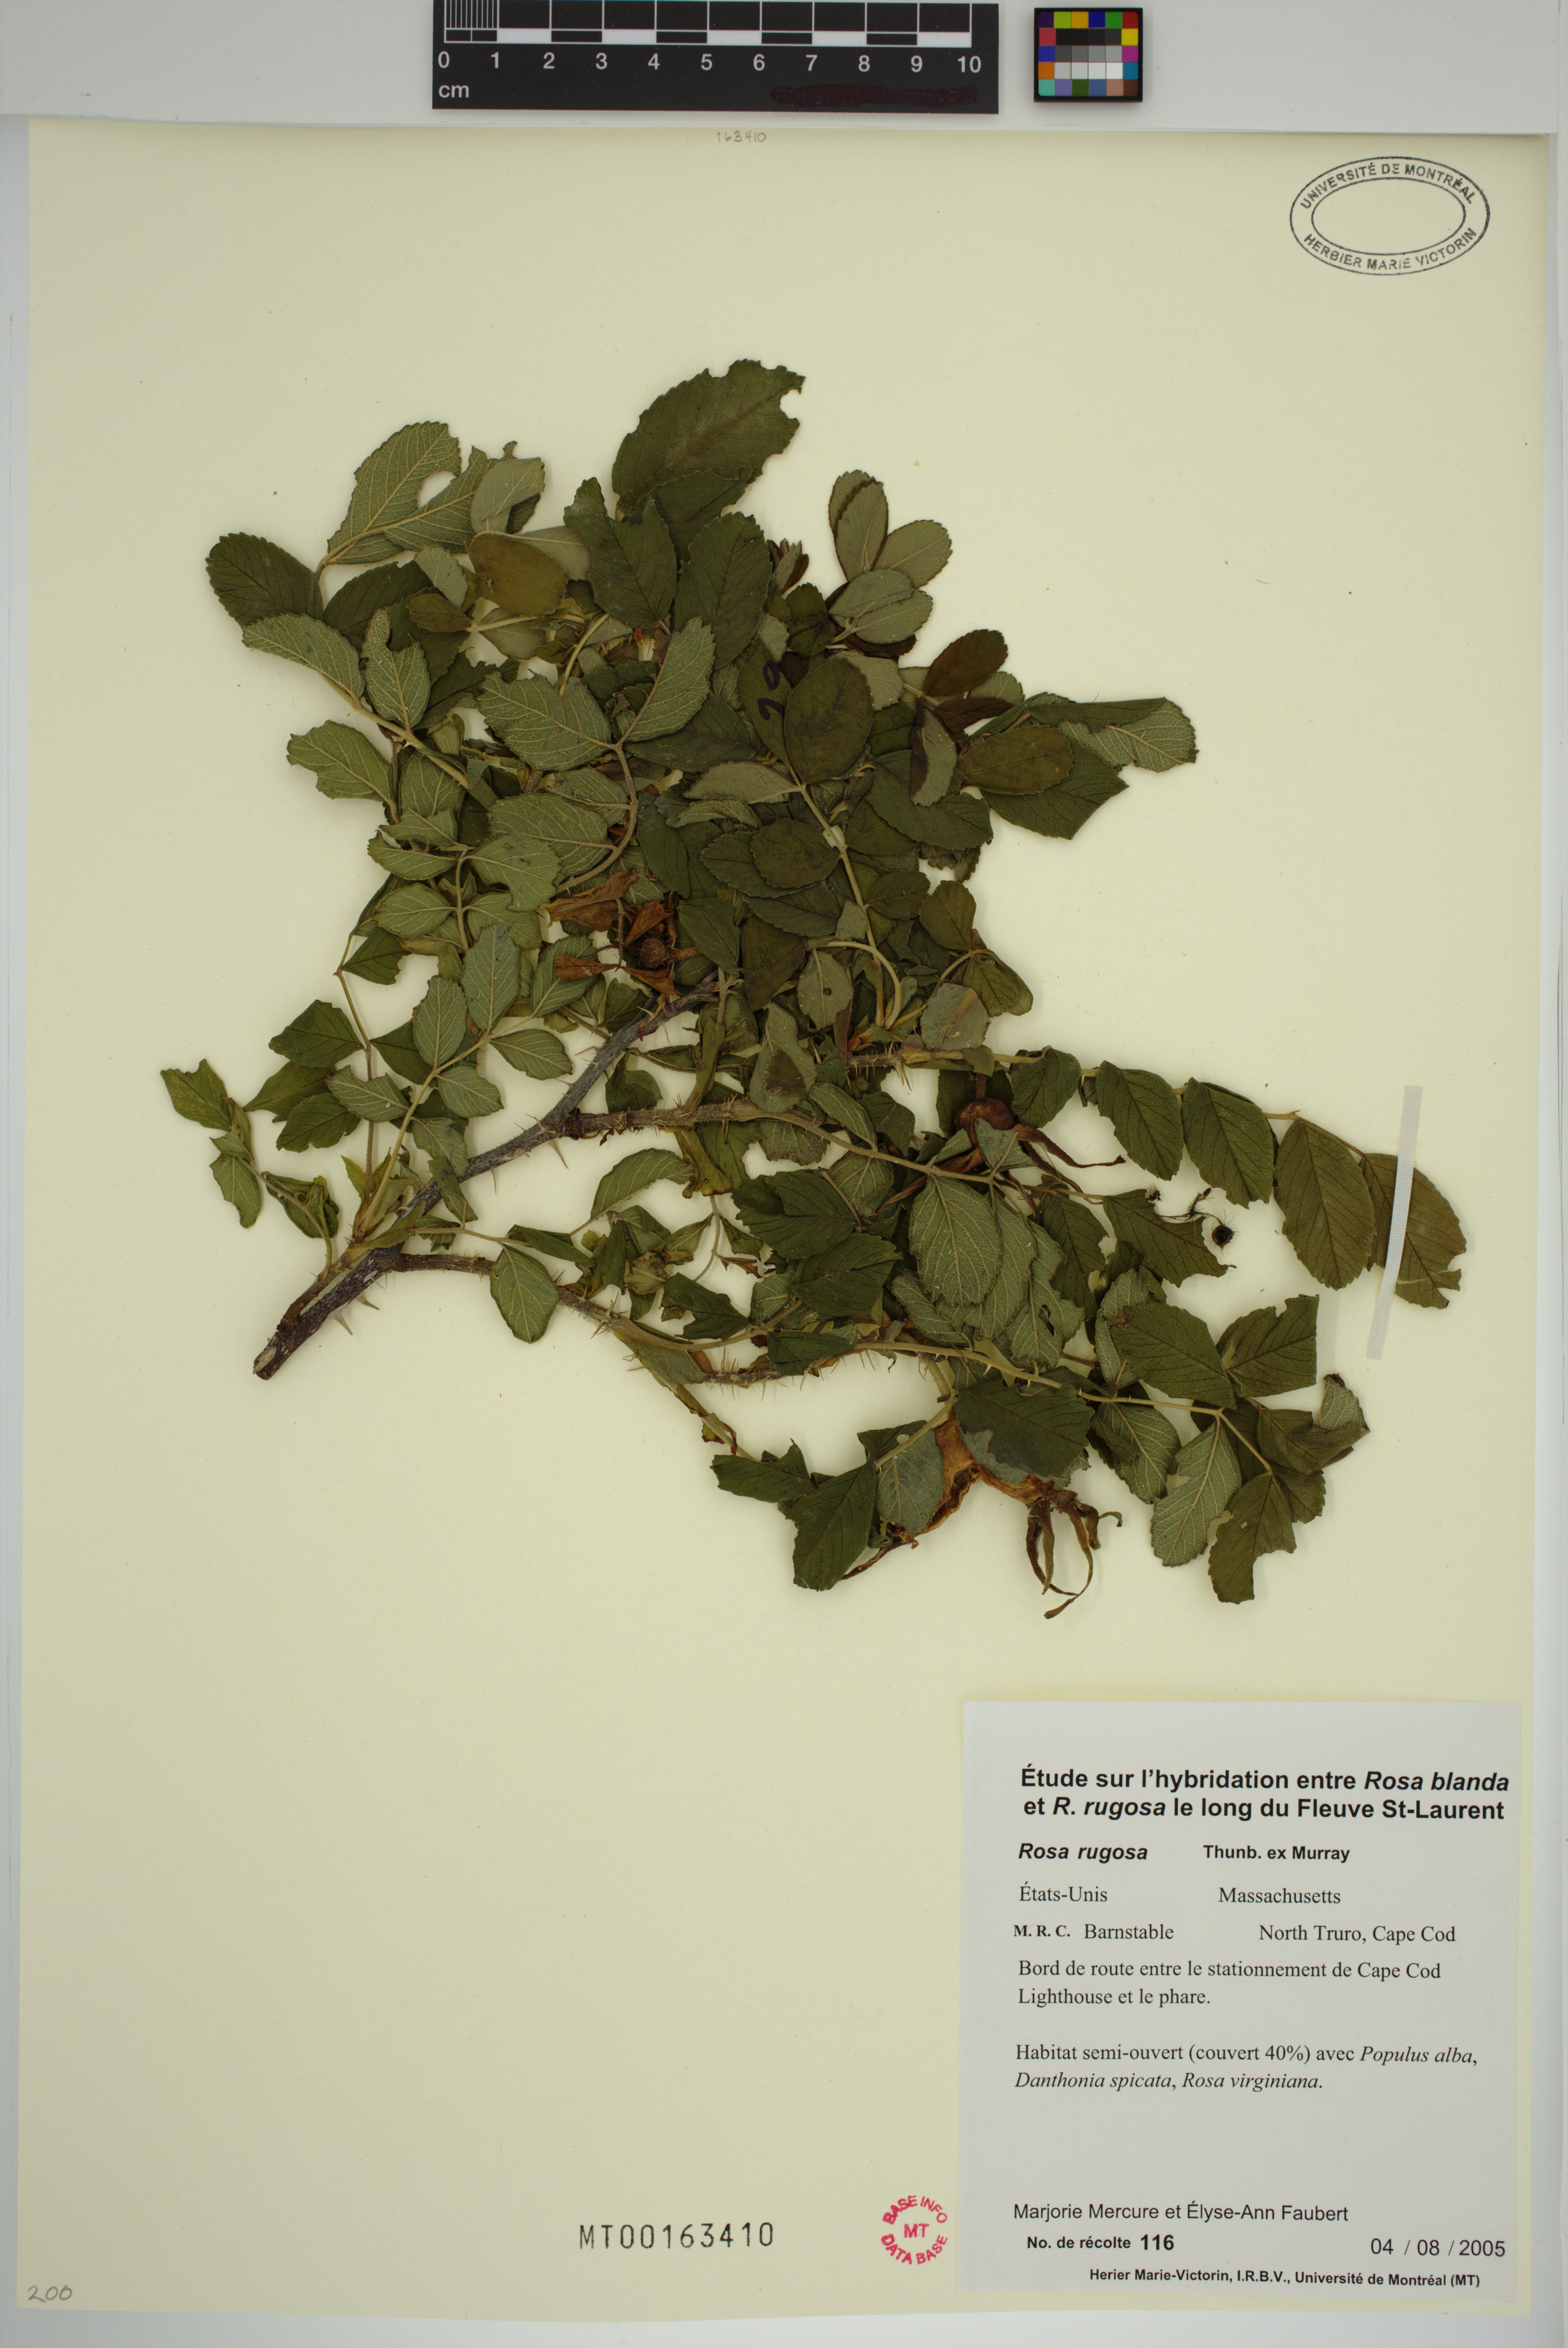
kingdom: Plantae
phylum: Tracheophyta
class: Magnoliopsida
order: Rosales
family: Rosaceae
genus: Rosa
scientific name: Rosa rugosa
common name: Japanese rose
